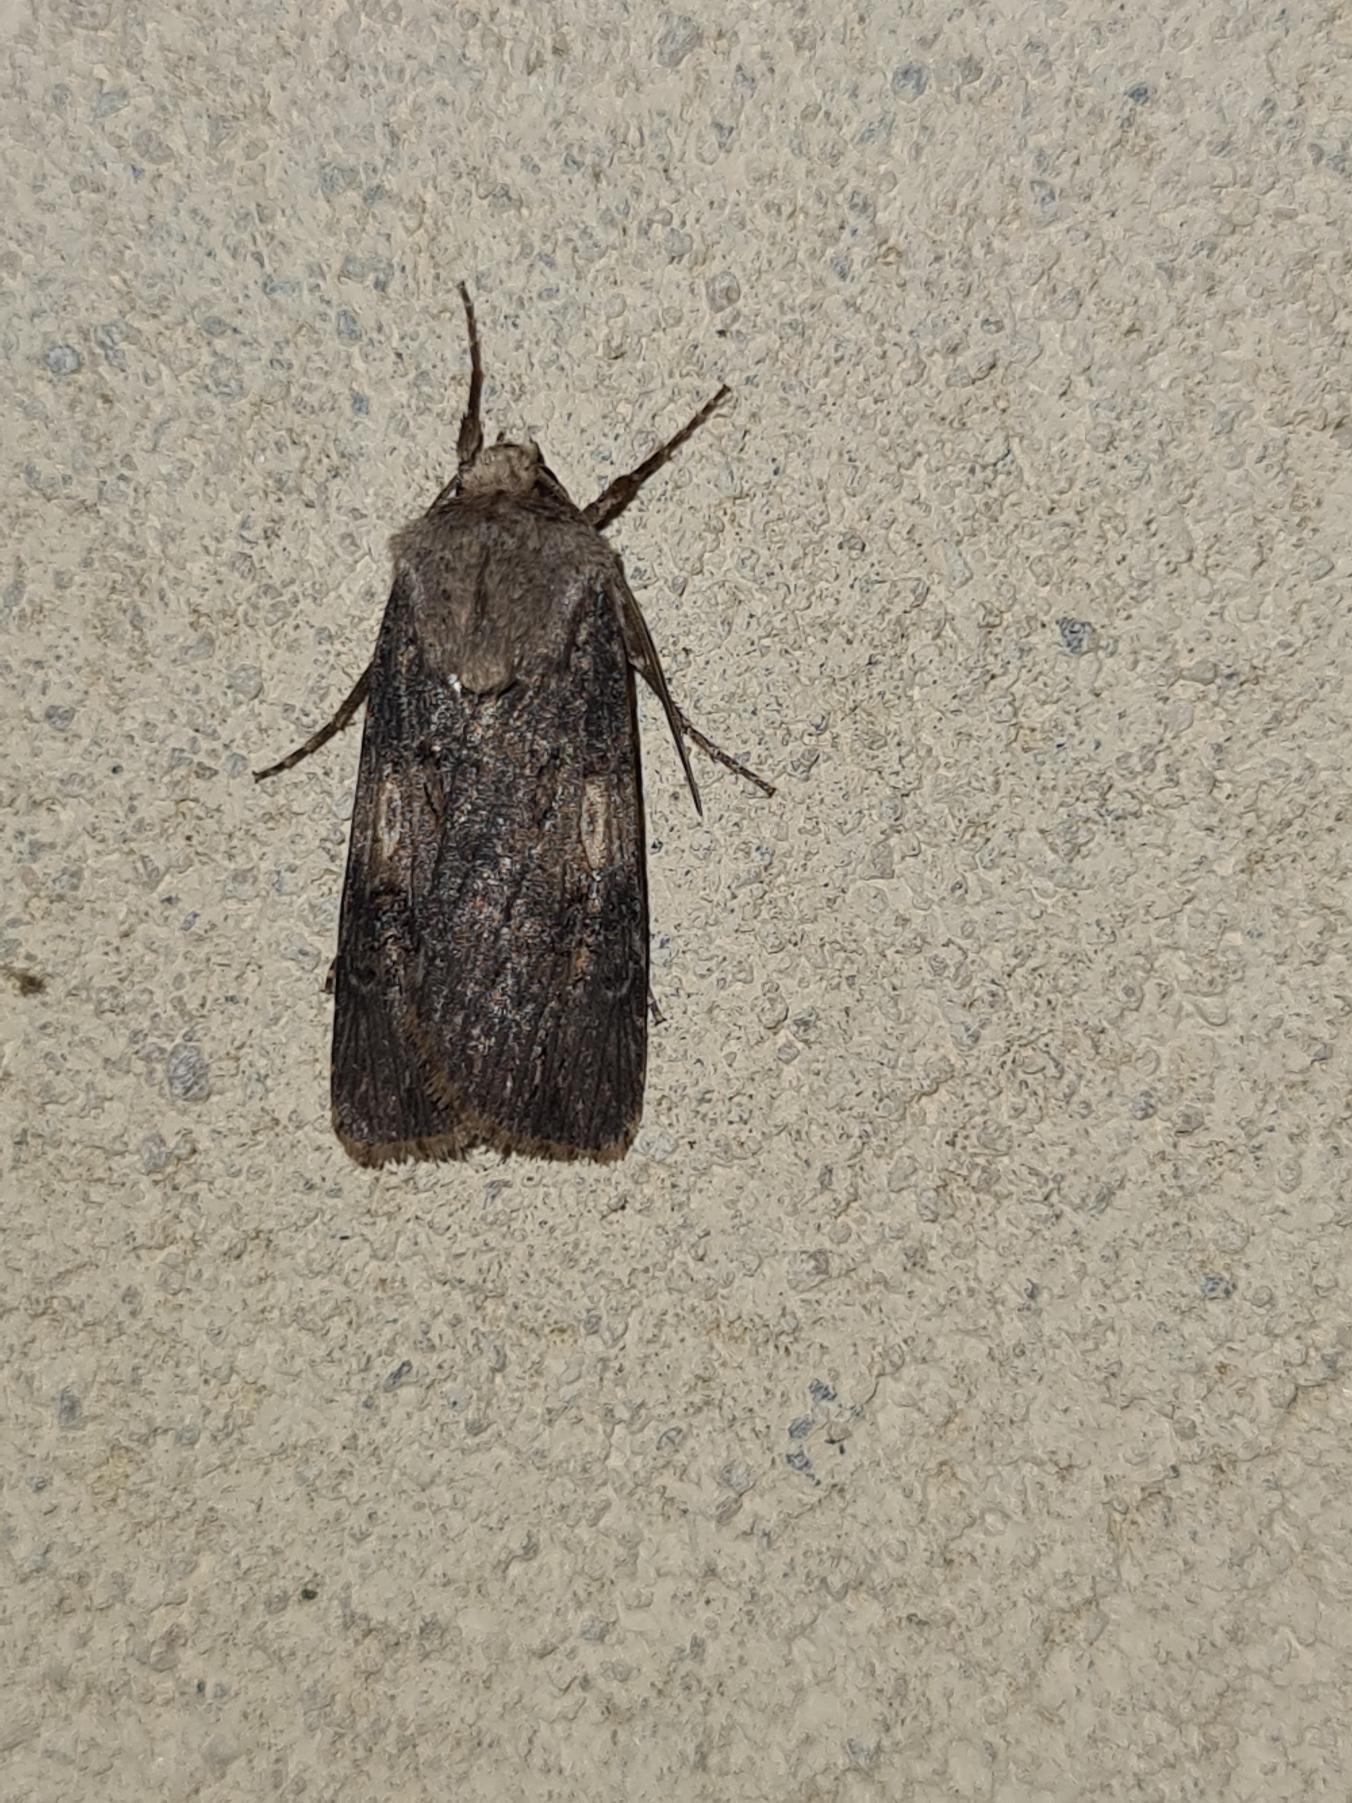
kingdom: Animalia
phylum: Arthropoda
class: Insecta
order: Lepidoptera
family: Noctuidae
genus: Agrotis
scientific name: Agrotis puta
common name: Frønnet landmand
